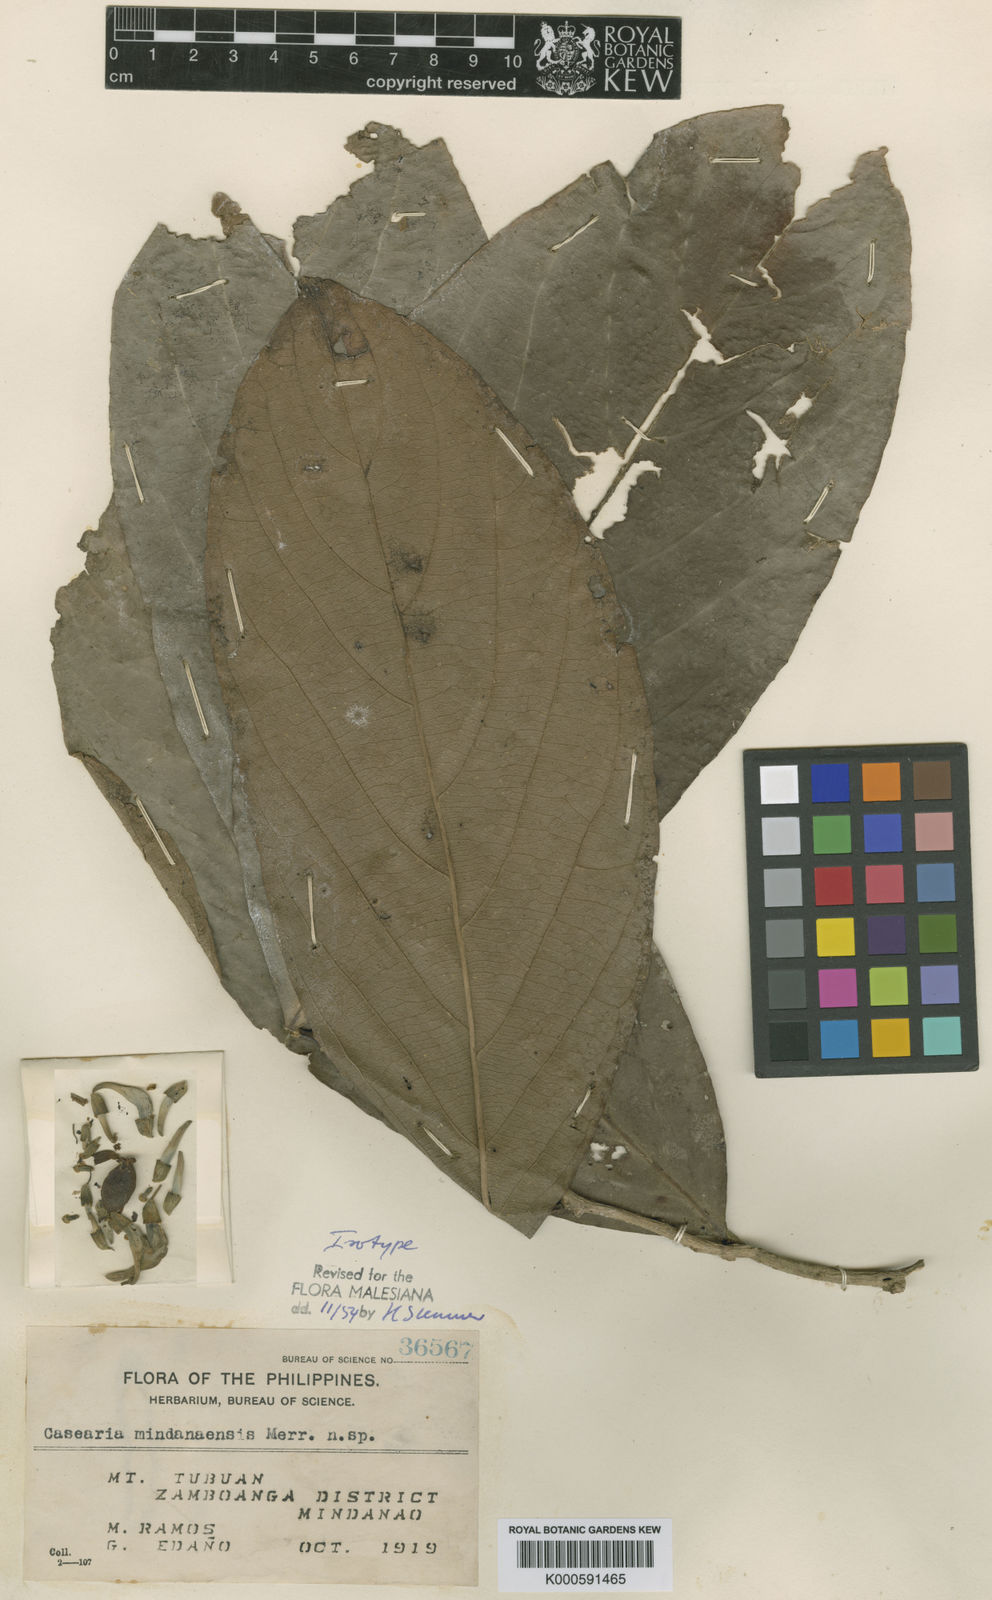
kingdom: Plantae
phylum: Tracheophyta
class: Magnoliopsida
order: Malpighiales
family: Salicaceae
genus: Casearia
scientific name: Casearia mindanaensis
